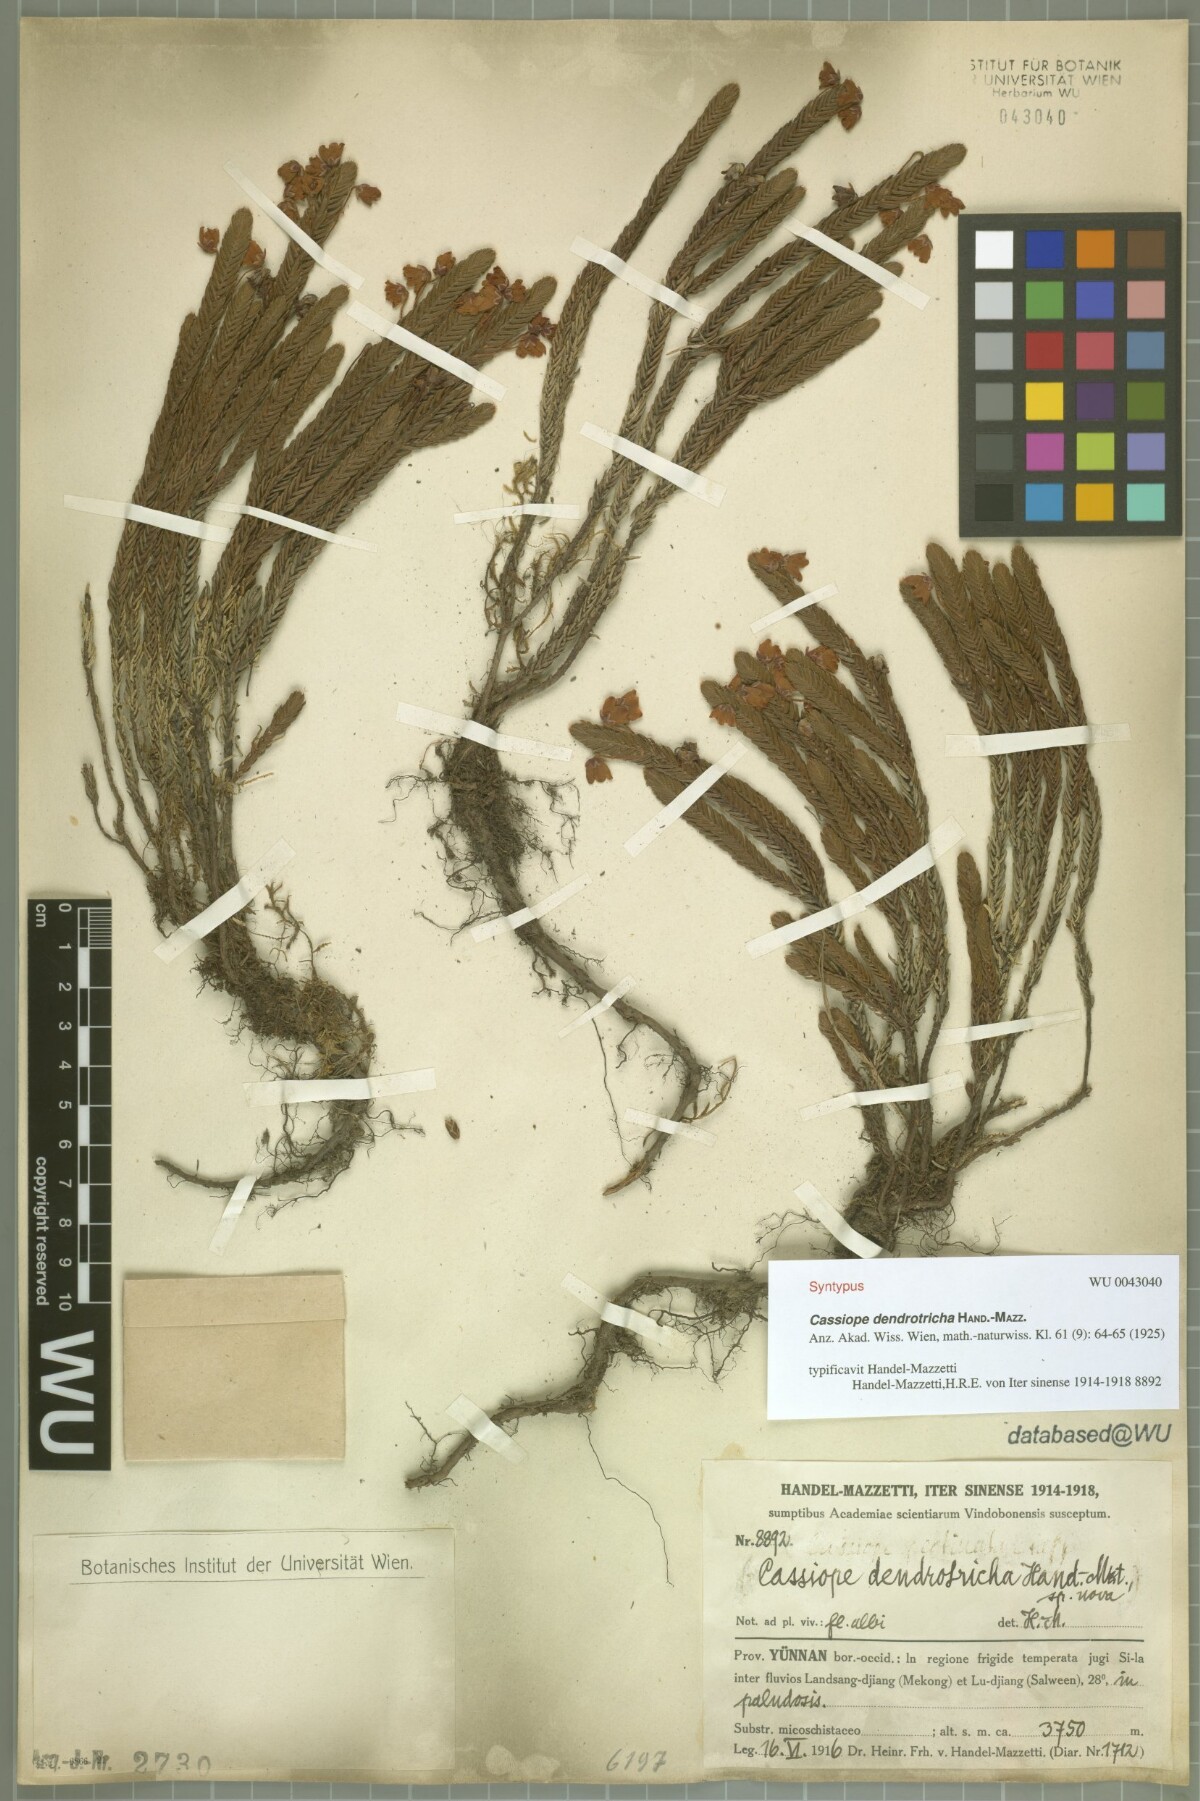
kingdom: Plantae
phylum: Tracheophyta
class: Magnoliopsida
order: Ericales
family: Ericaceae
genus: Cassiope
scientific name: Cassiope pectinata
